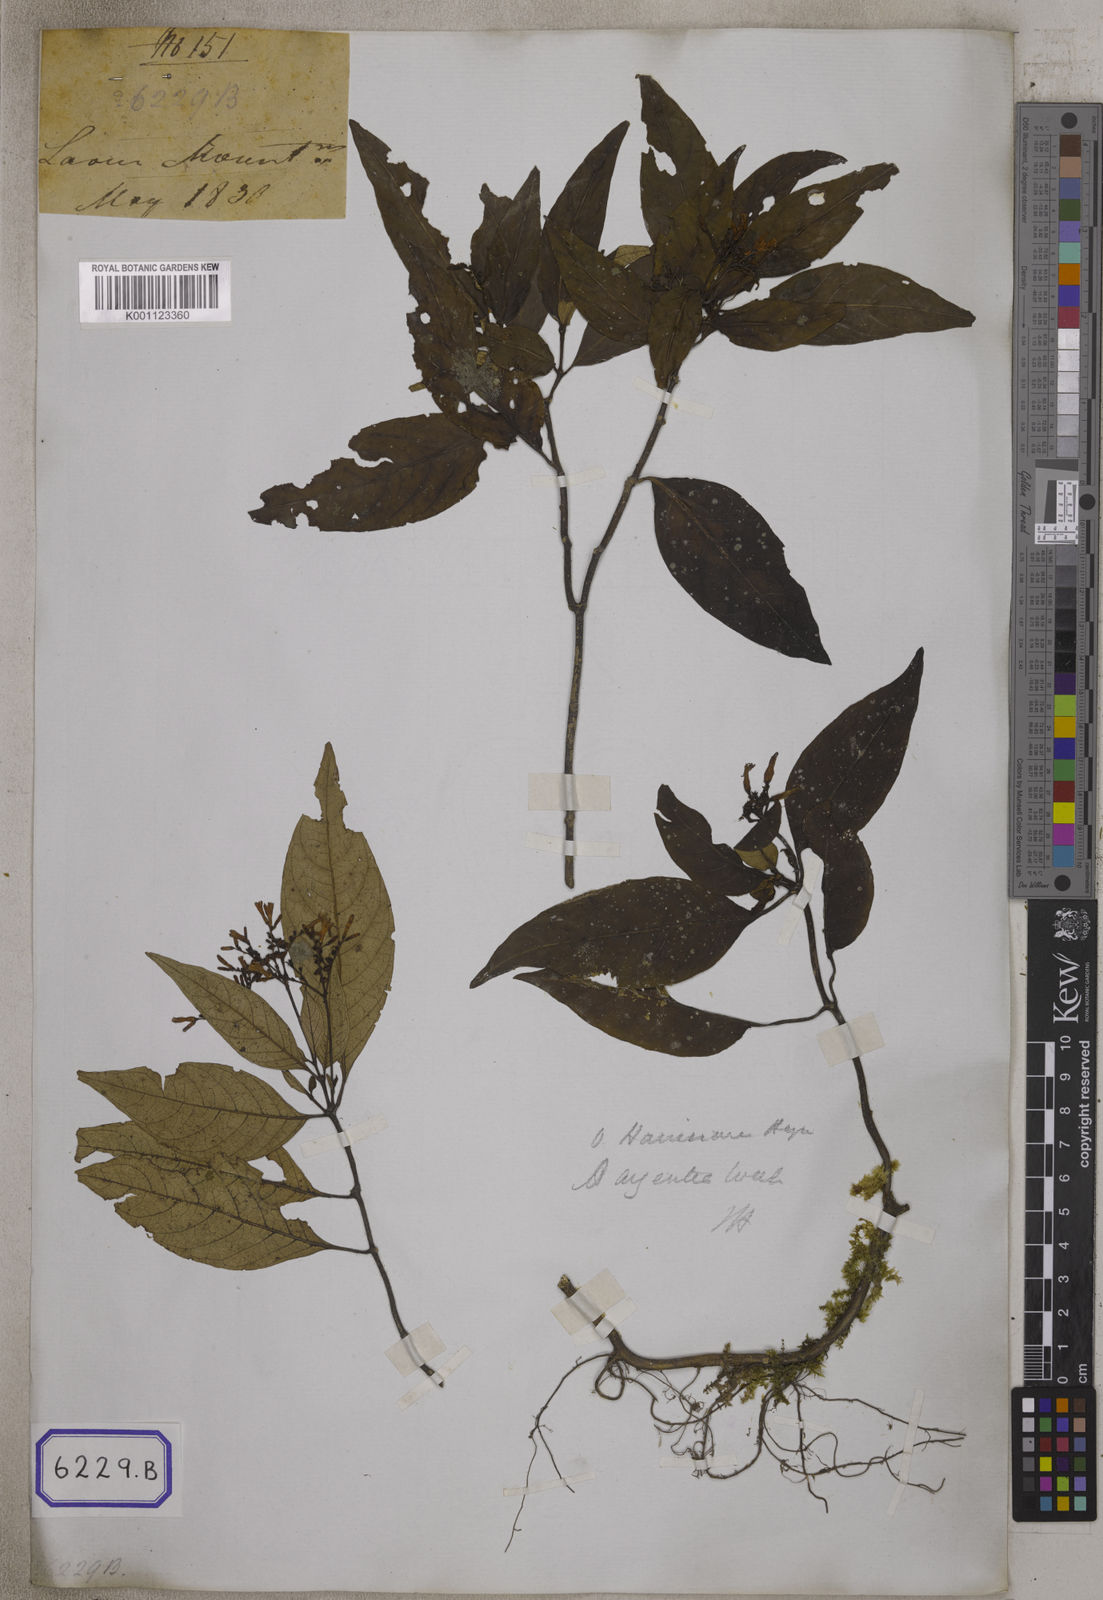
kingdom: Plantae
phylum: Tracheophyta
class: Magnoliopsida
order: Gentianales
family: Rubiaceae
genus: Ophiorrhiza
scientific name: Ophiorrhiza
